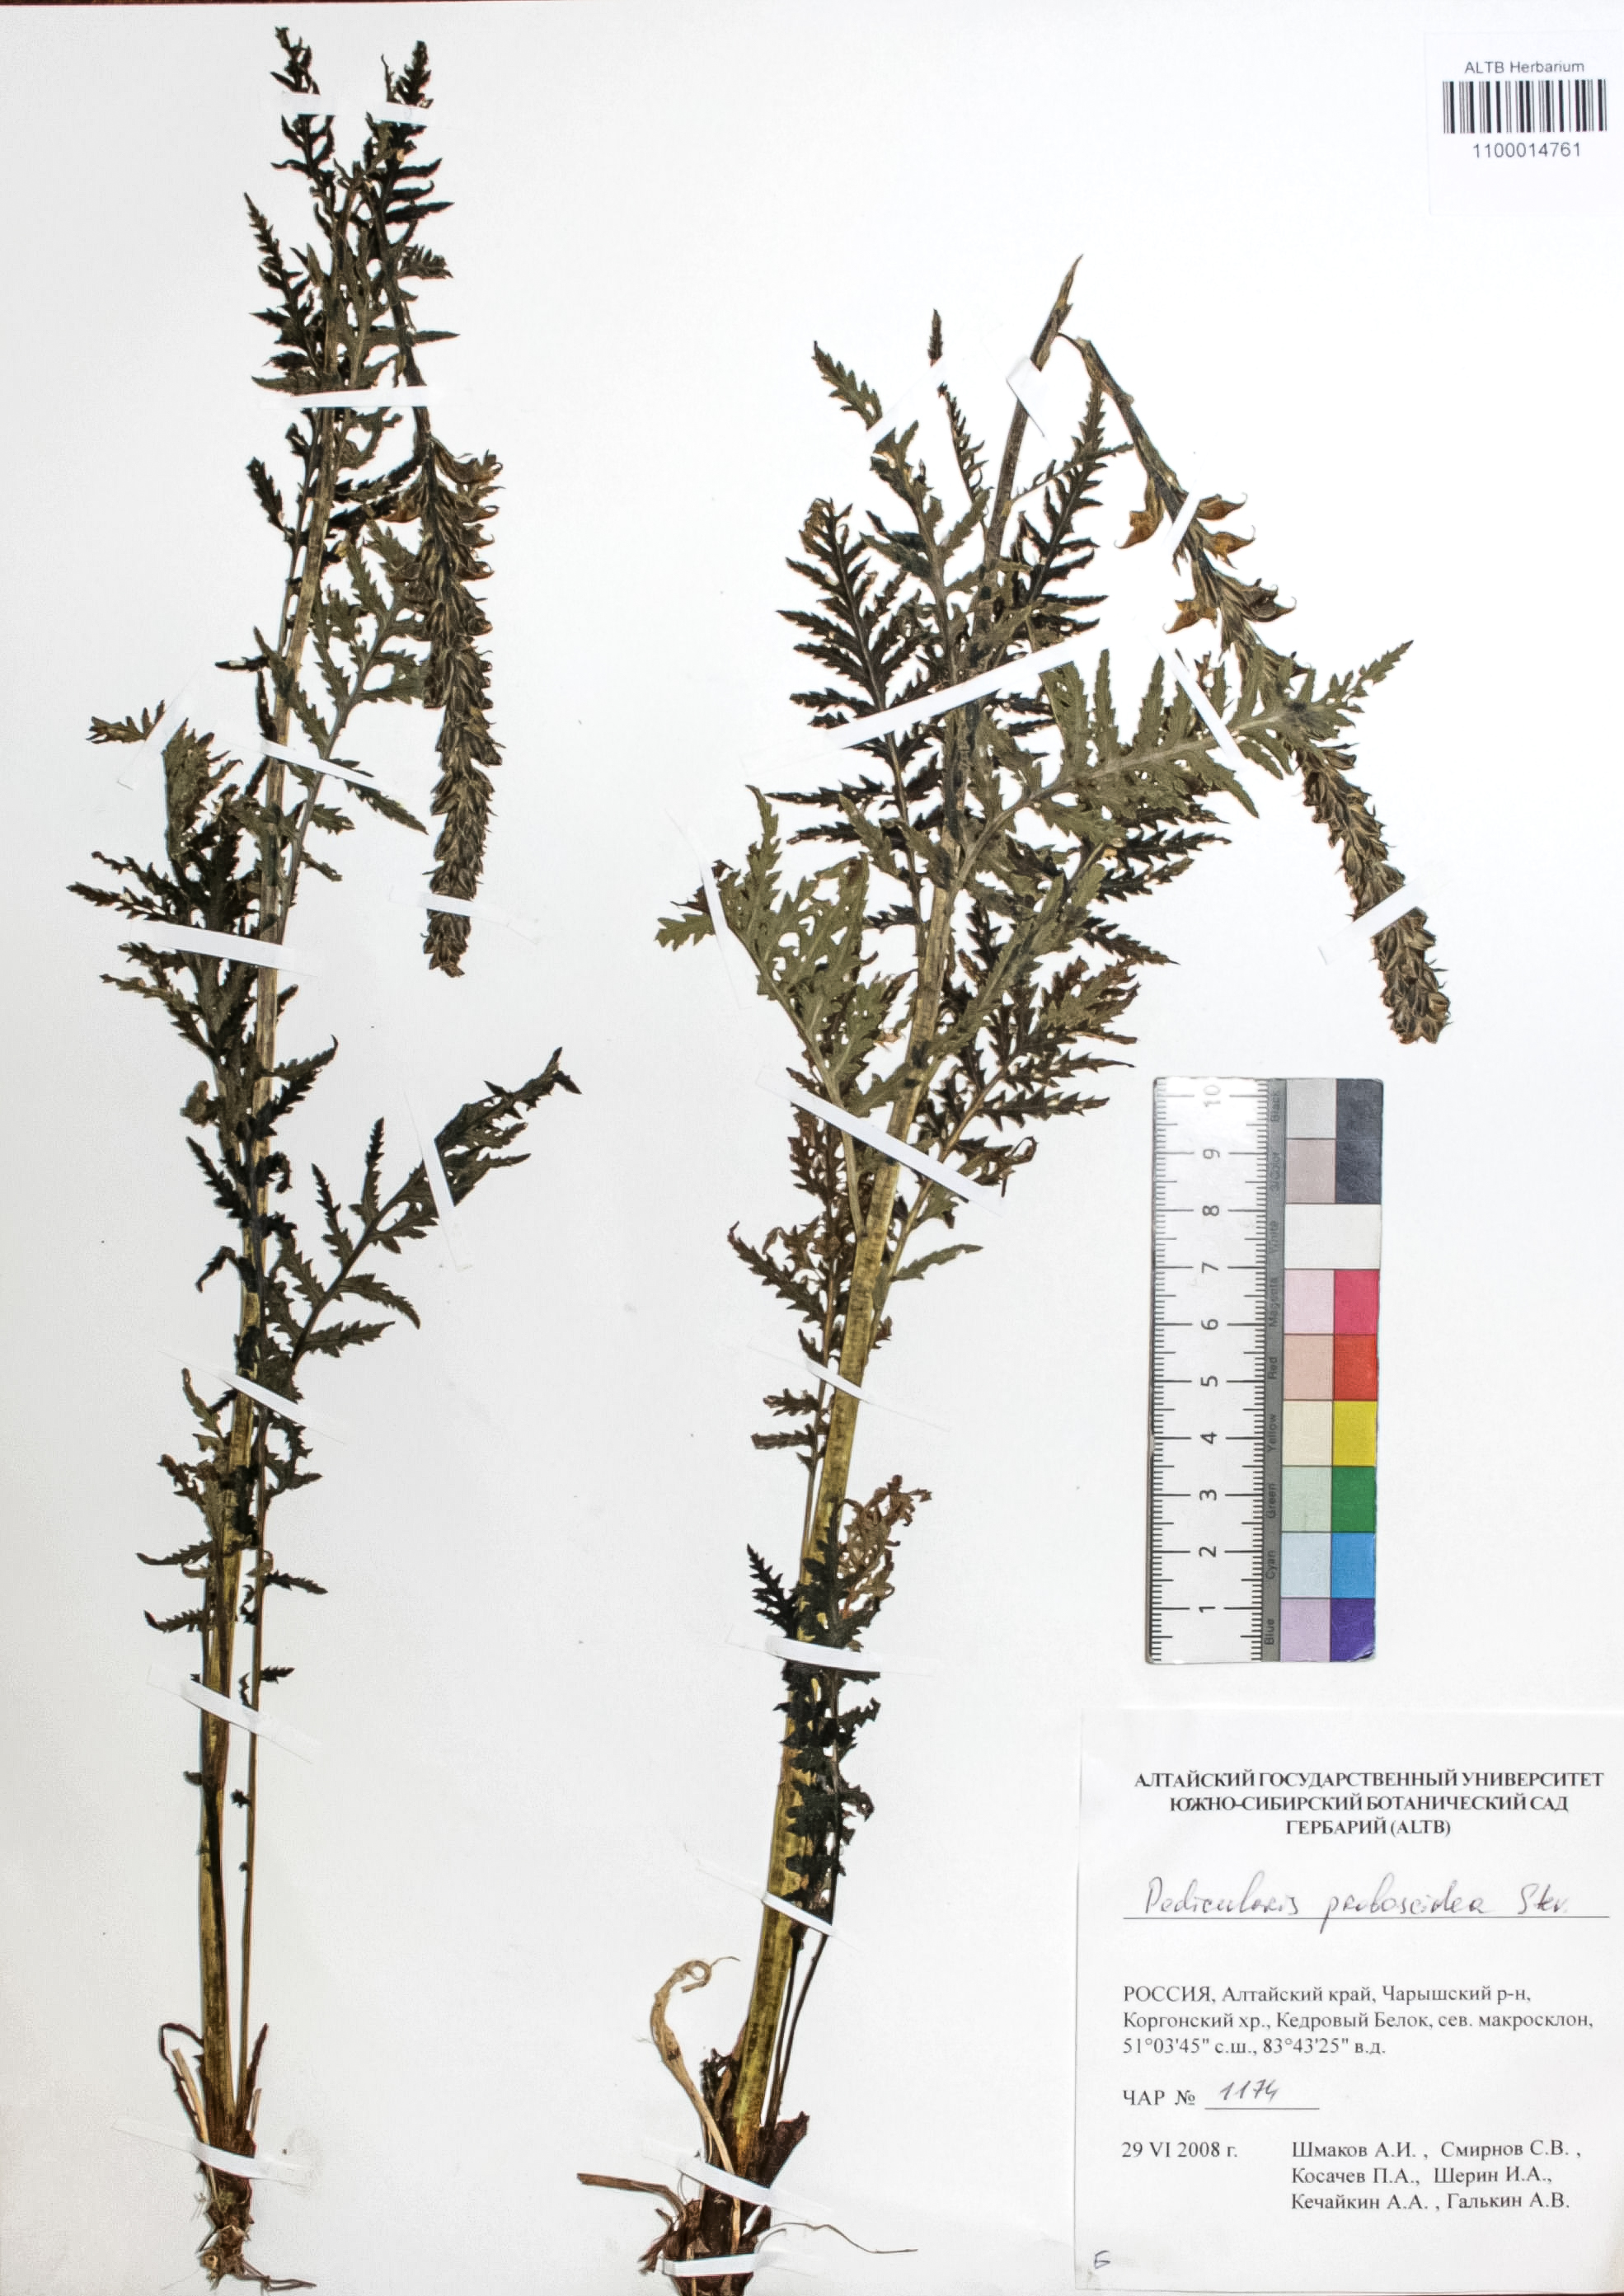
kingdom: Plantae
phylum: Tracheophyta
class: Magnoliopsida
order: Lamiales
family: Orobanchaceae
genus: Pedicularis
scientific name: Pedicularis proboscidea
